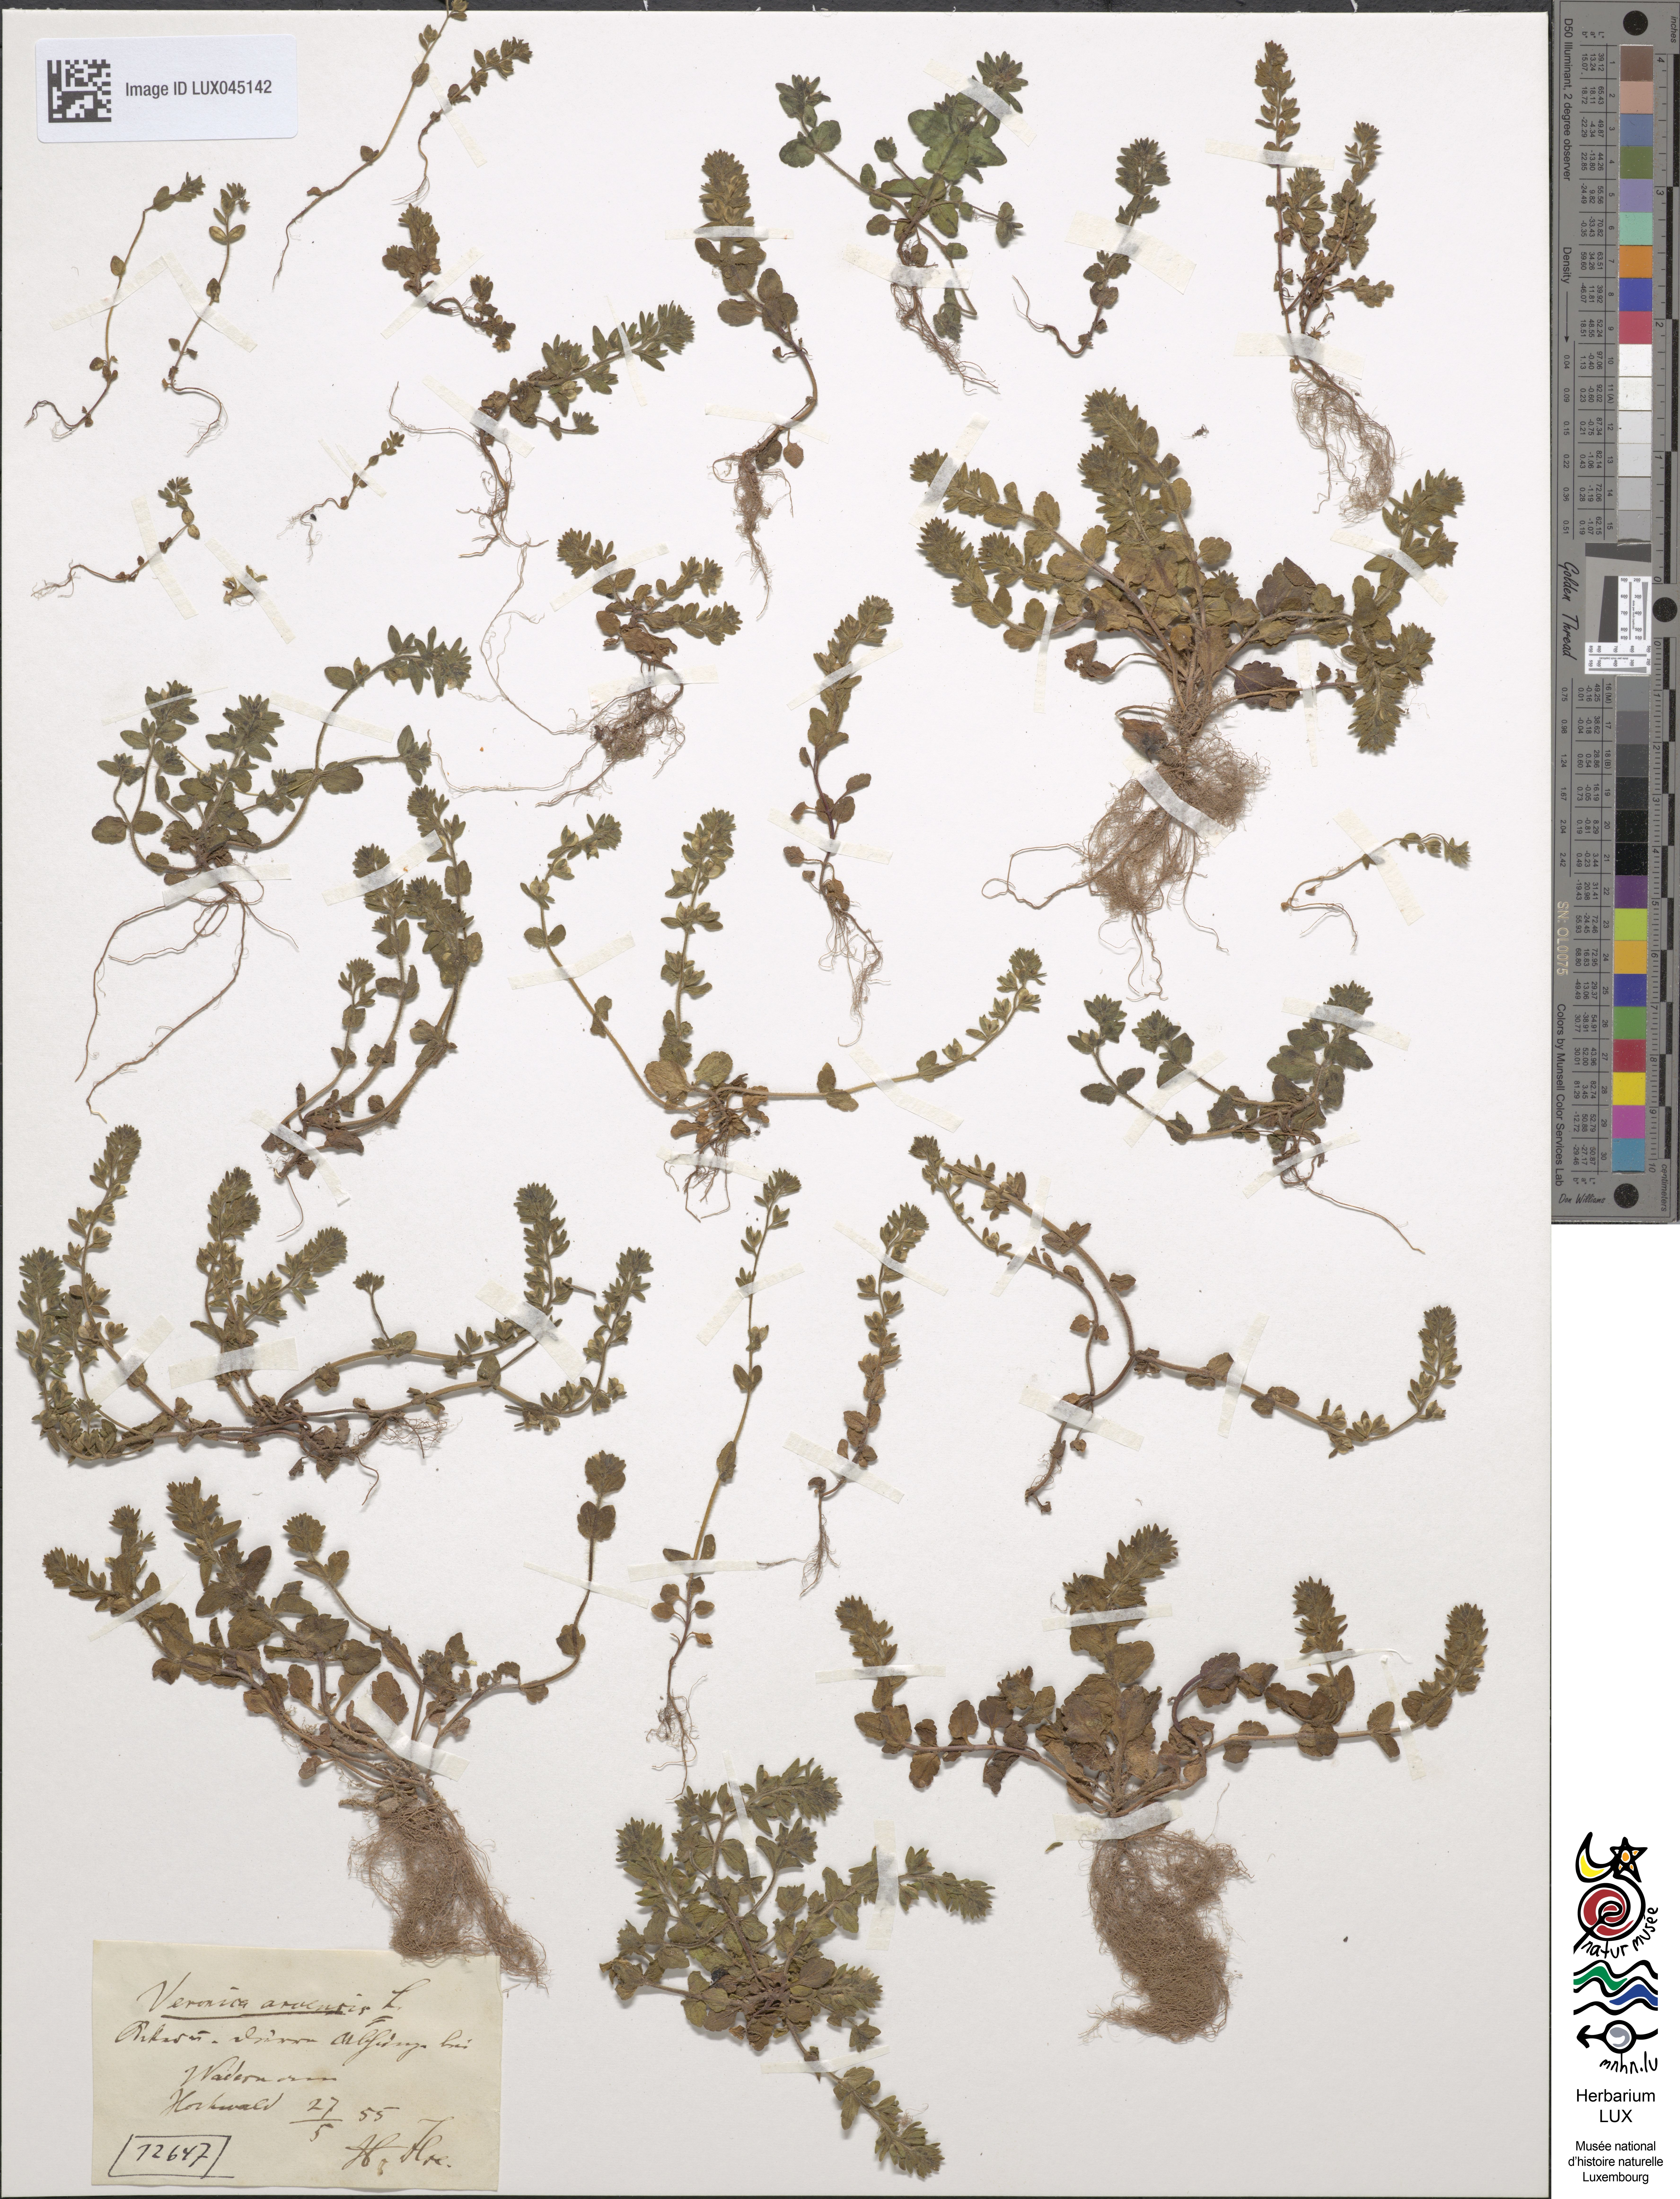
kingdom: Plantae
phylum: Tracheophyta
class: Magnoliopsida
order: Lamiales
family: Plantaginaceae
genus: Veronica
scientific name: Veronica arvensis
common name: Corn speedwell
